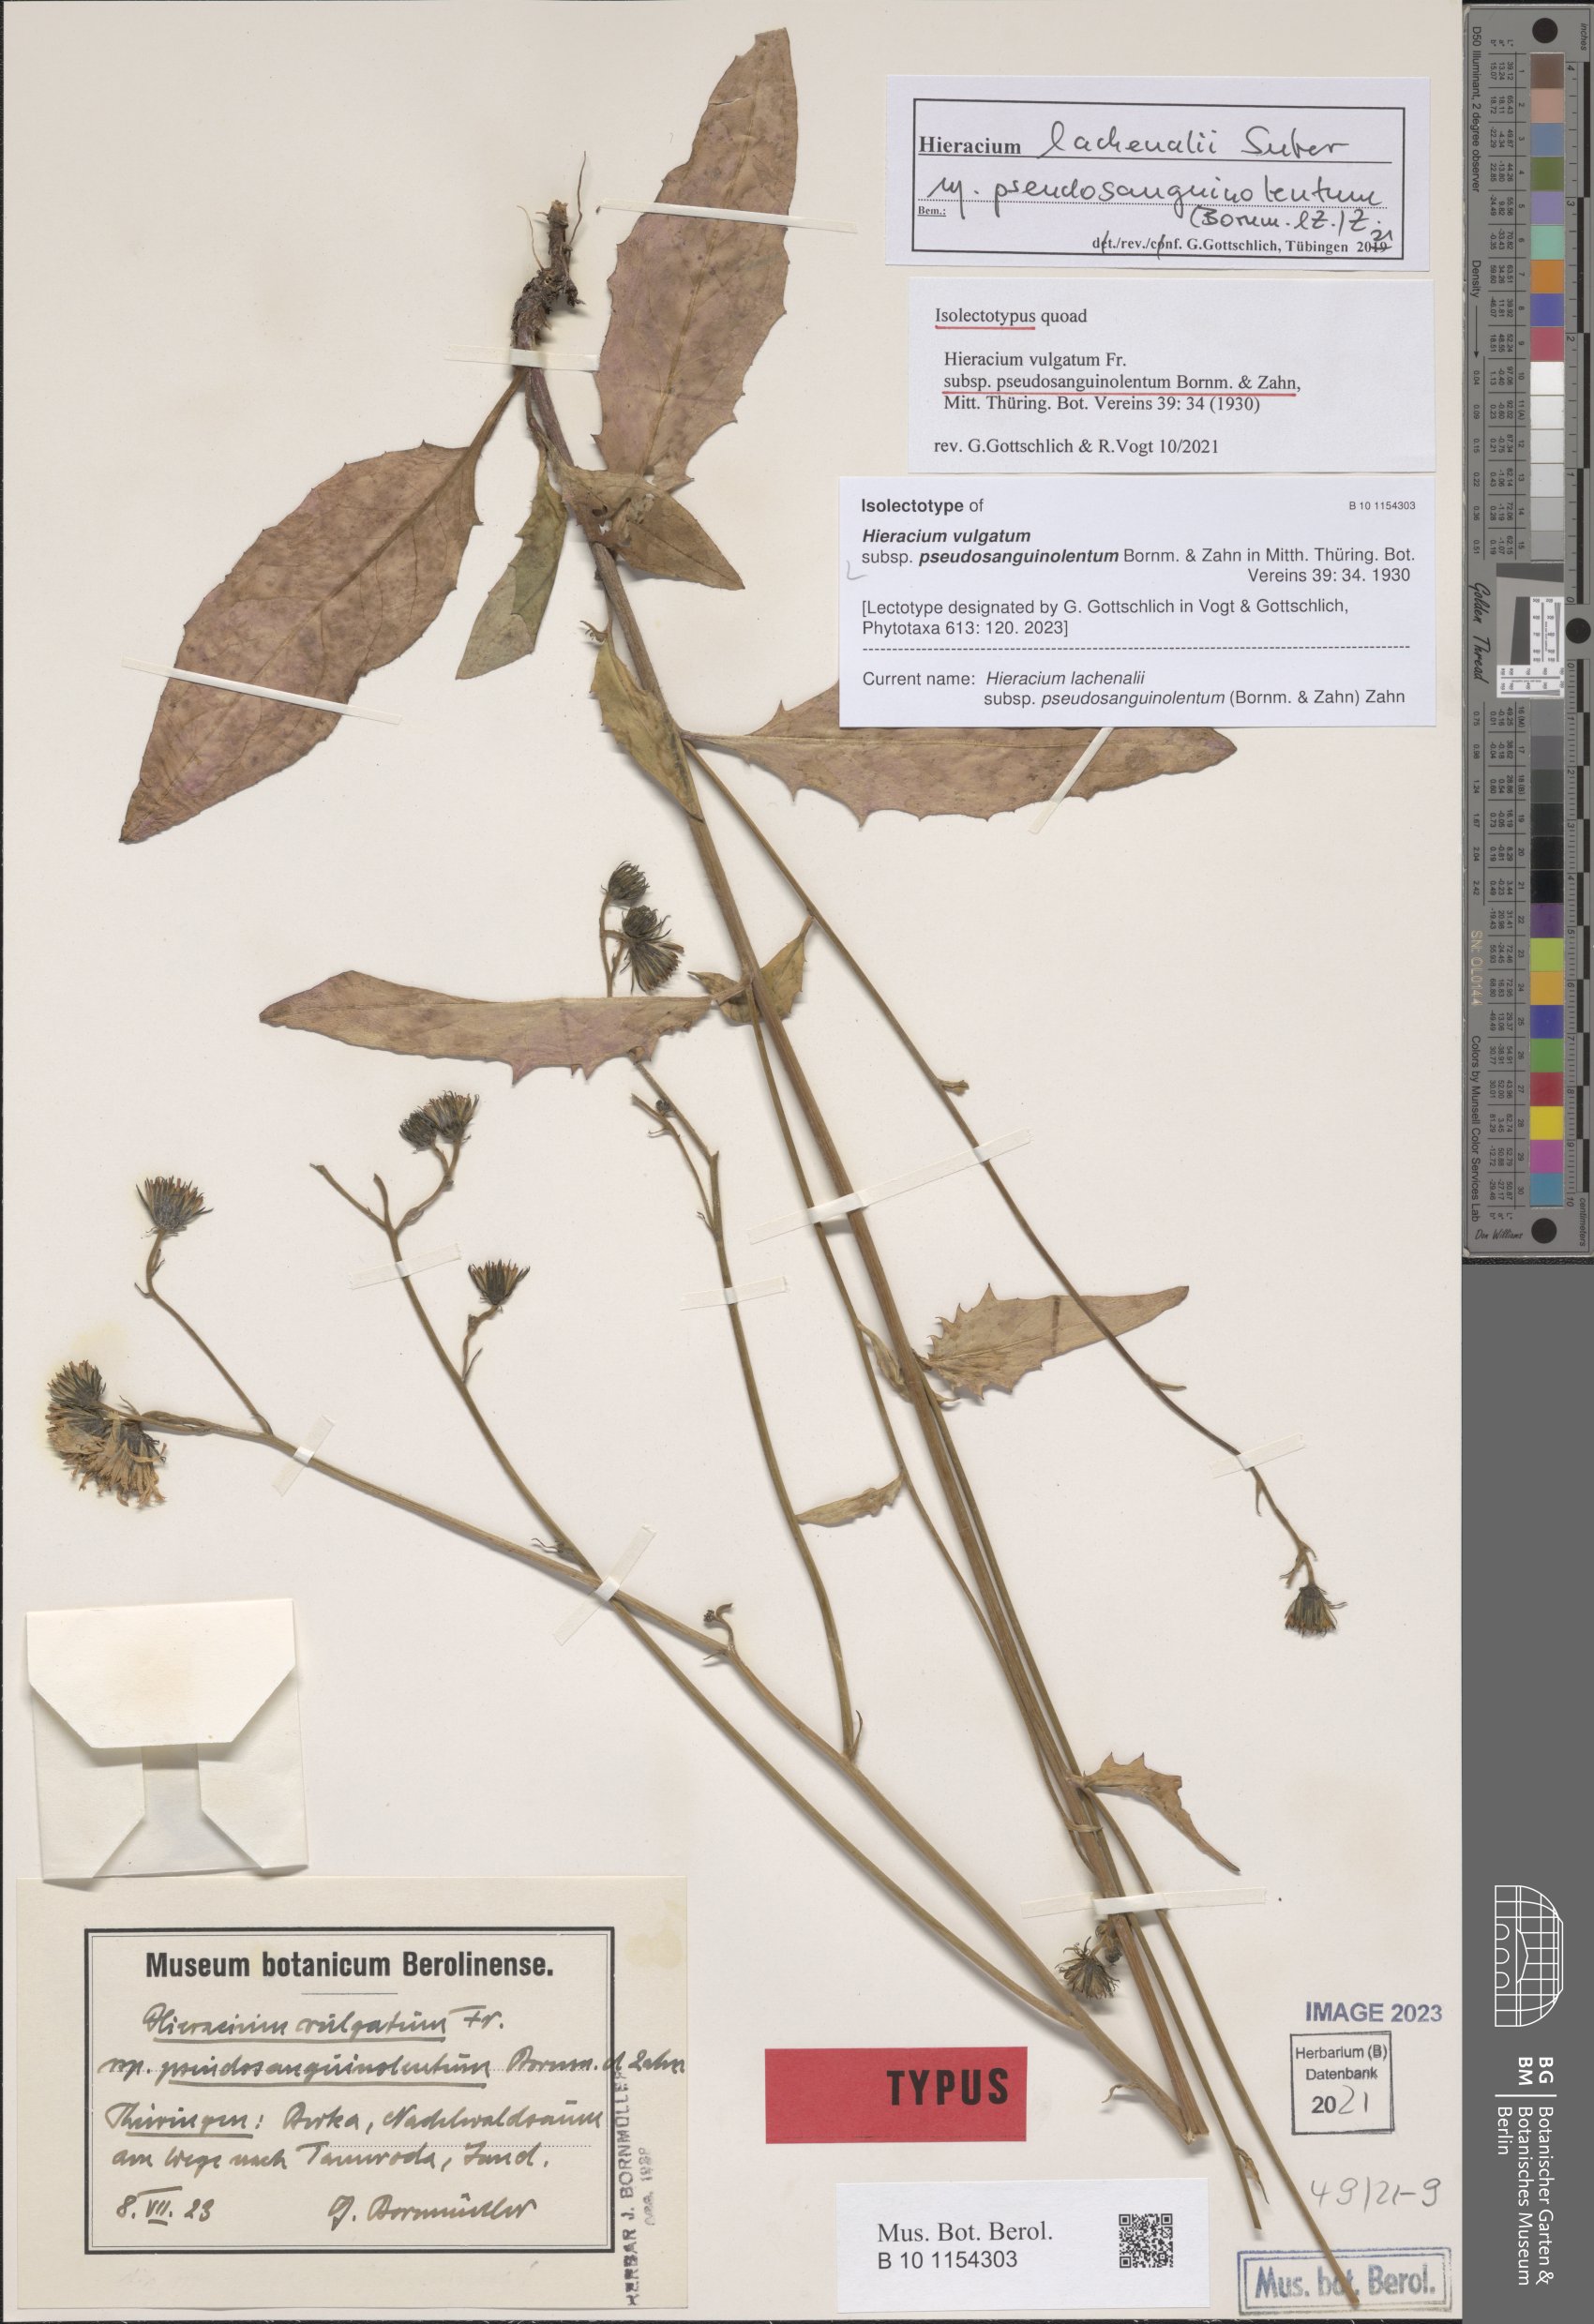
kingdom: Plantae
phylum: Tracheophyta
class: Magnoliopsida
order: Asterales
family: Asteraceae
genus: Hieracium
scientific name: Hieracium lachenalii
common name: Common hawkweed
